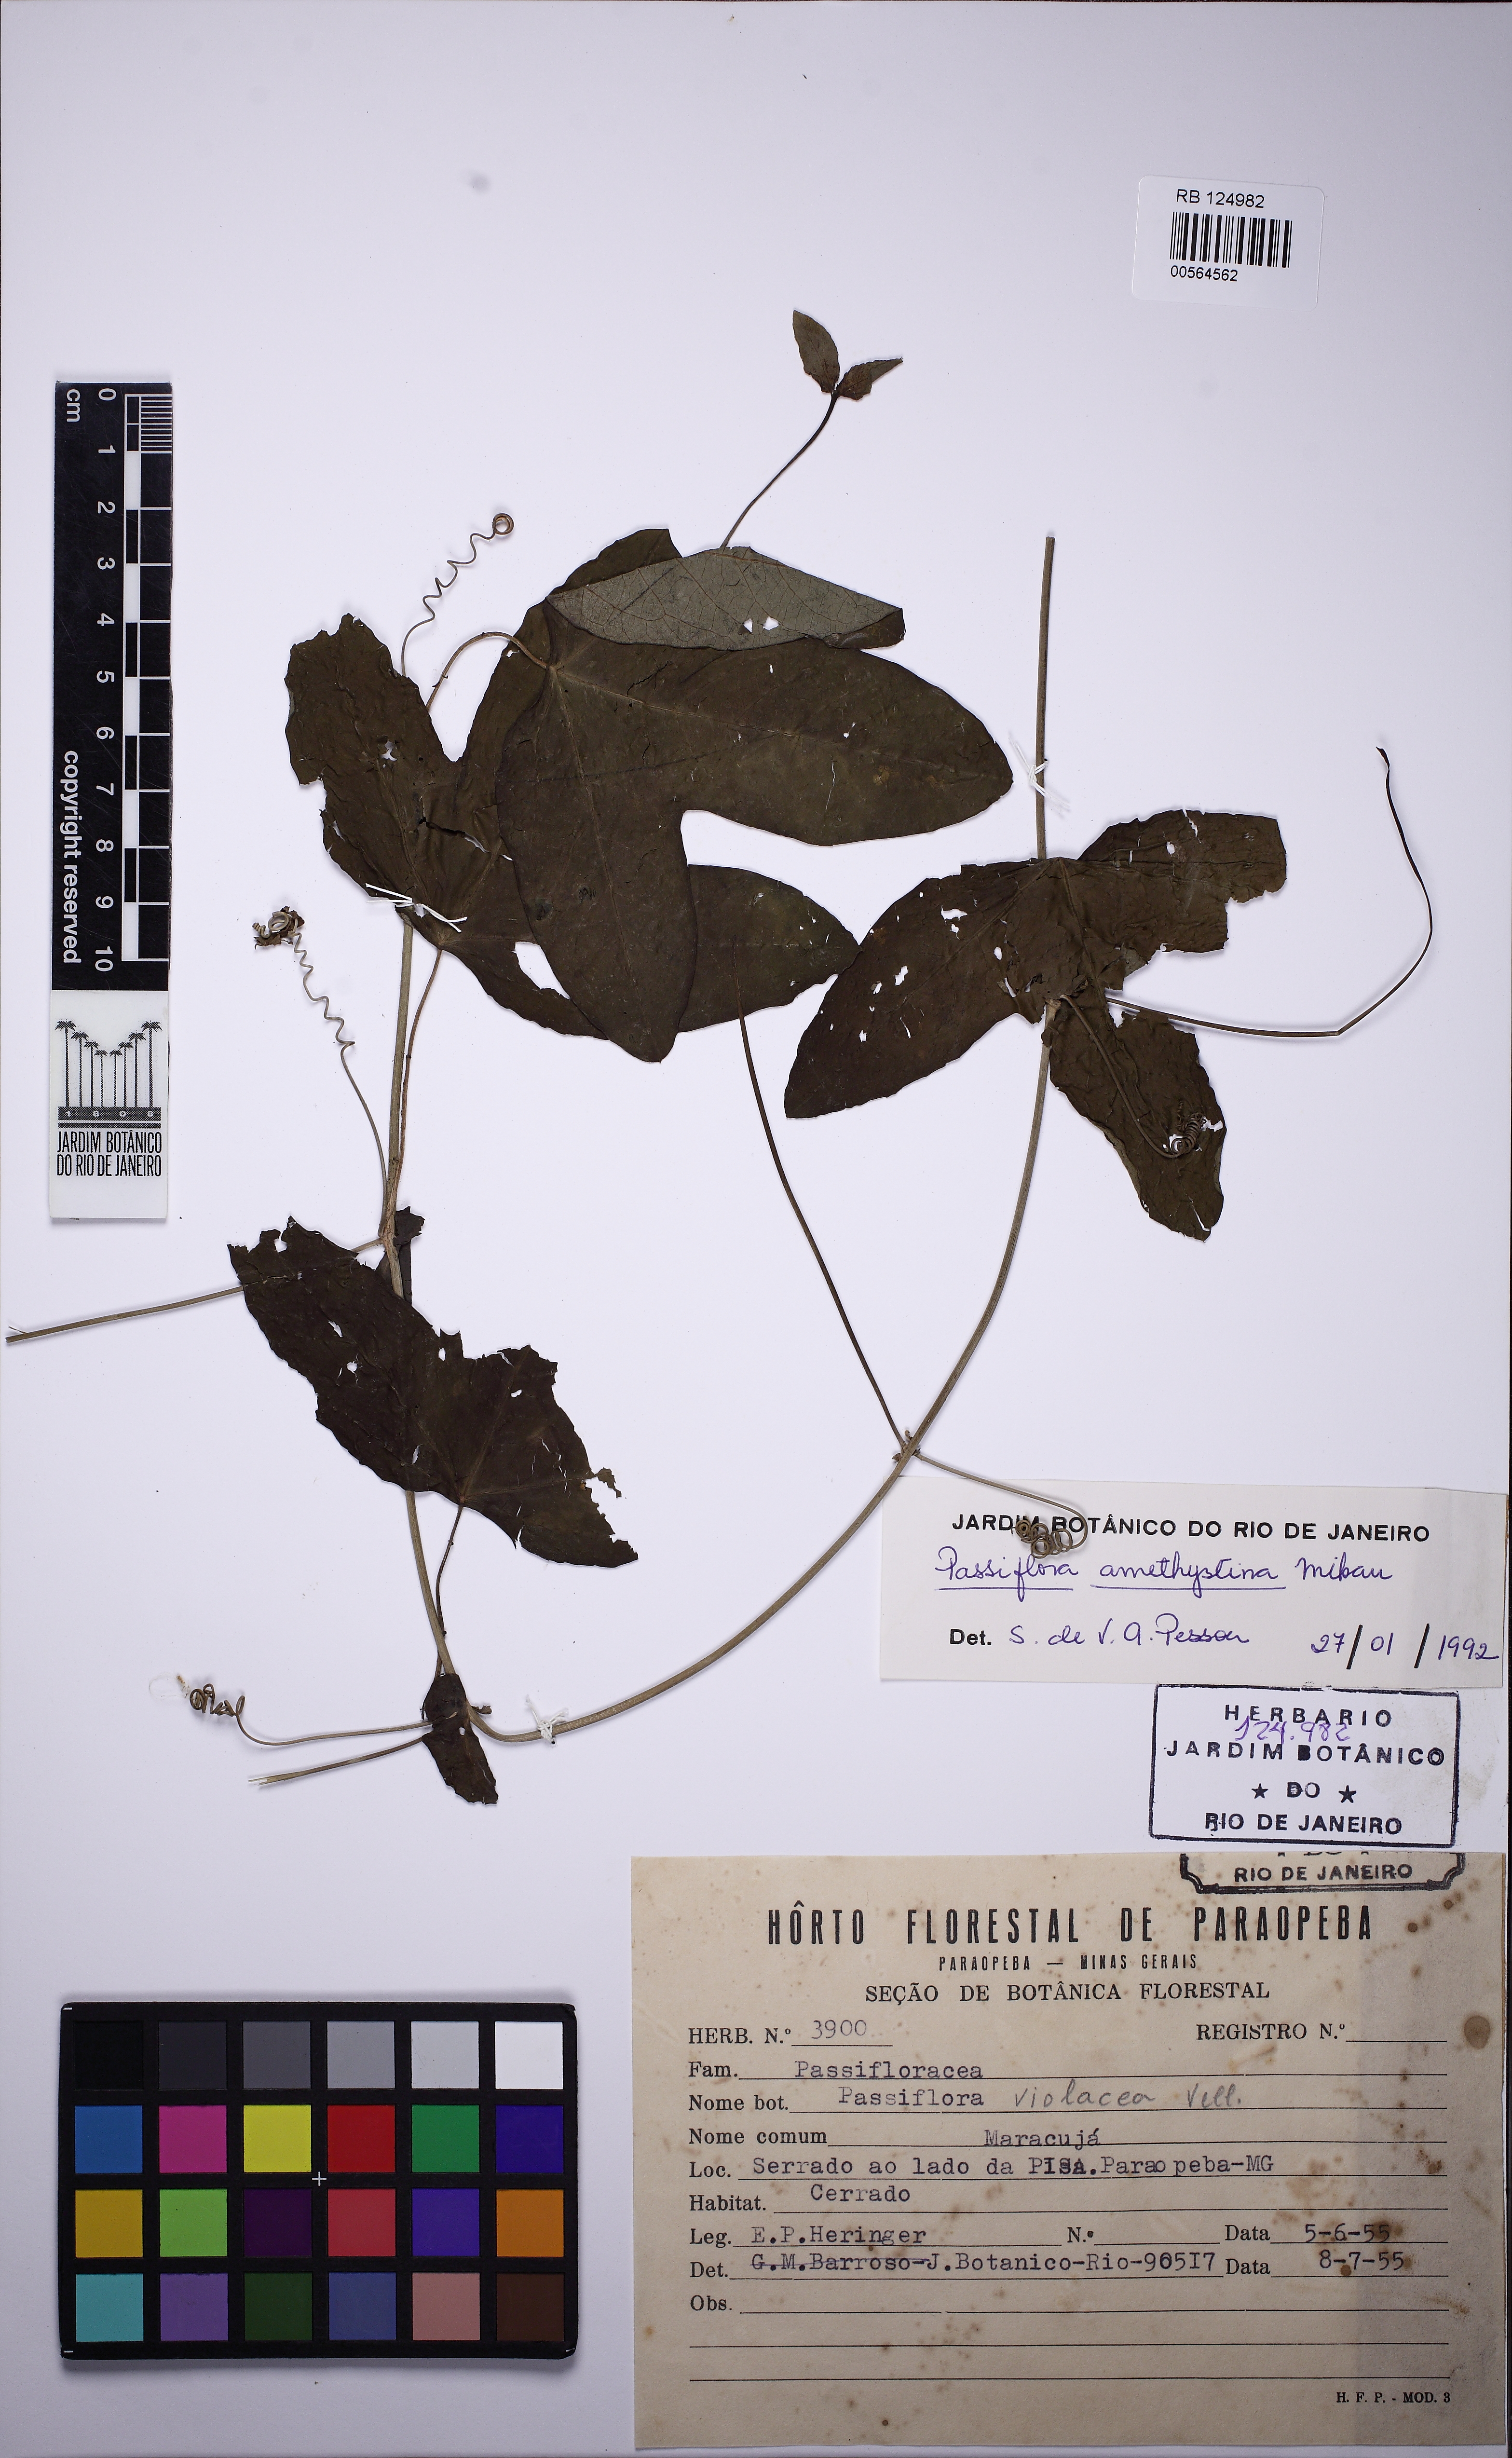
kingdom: Plantae
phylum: Tracheophyta
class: Magnoliopsida
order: Malpighiales
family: Passifloraceae
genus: Passiflora
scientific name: Passiflora amethystina
